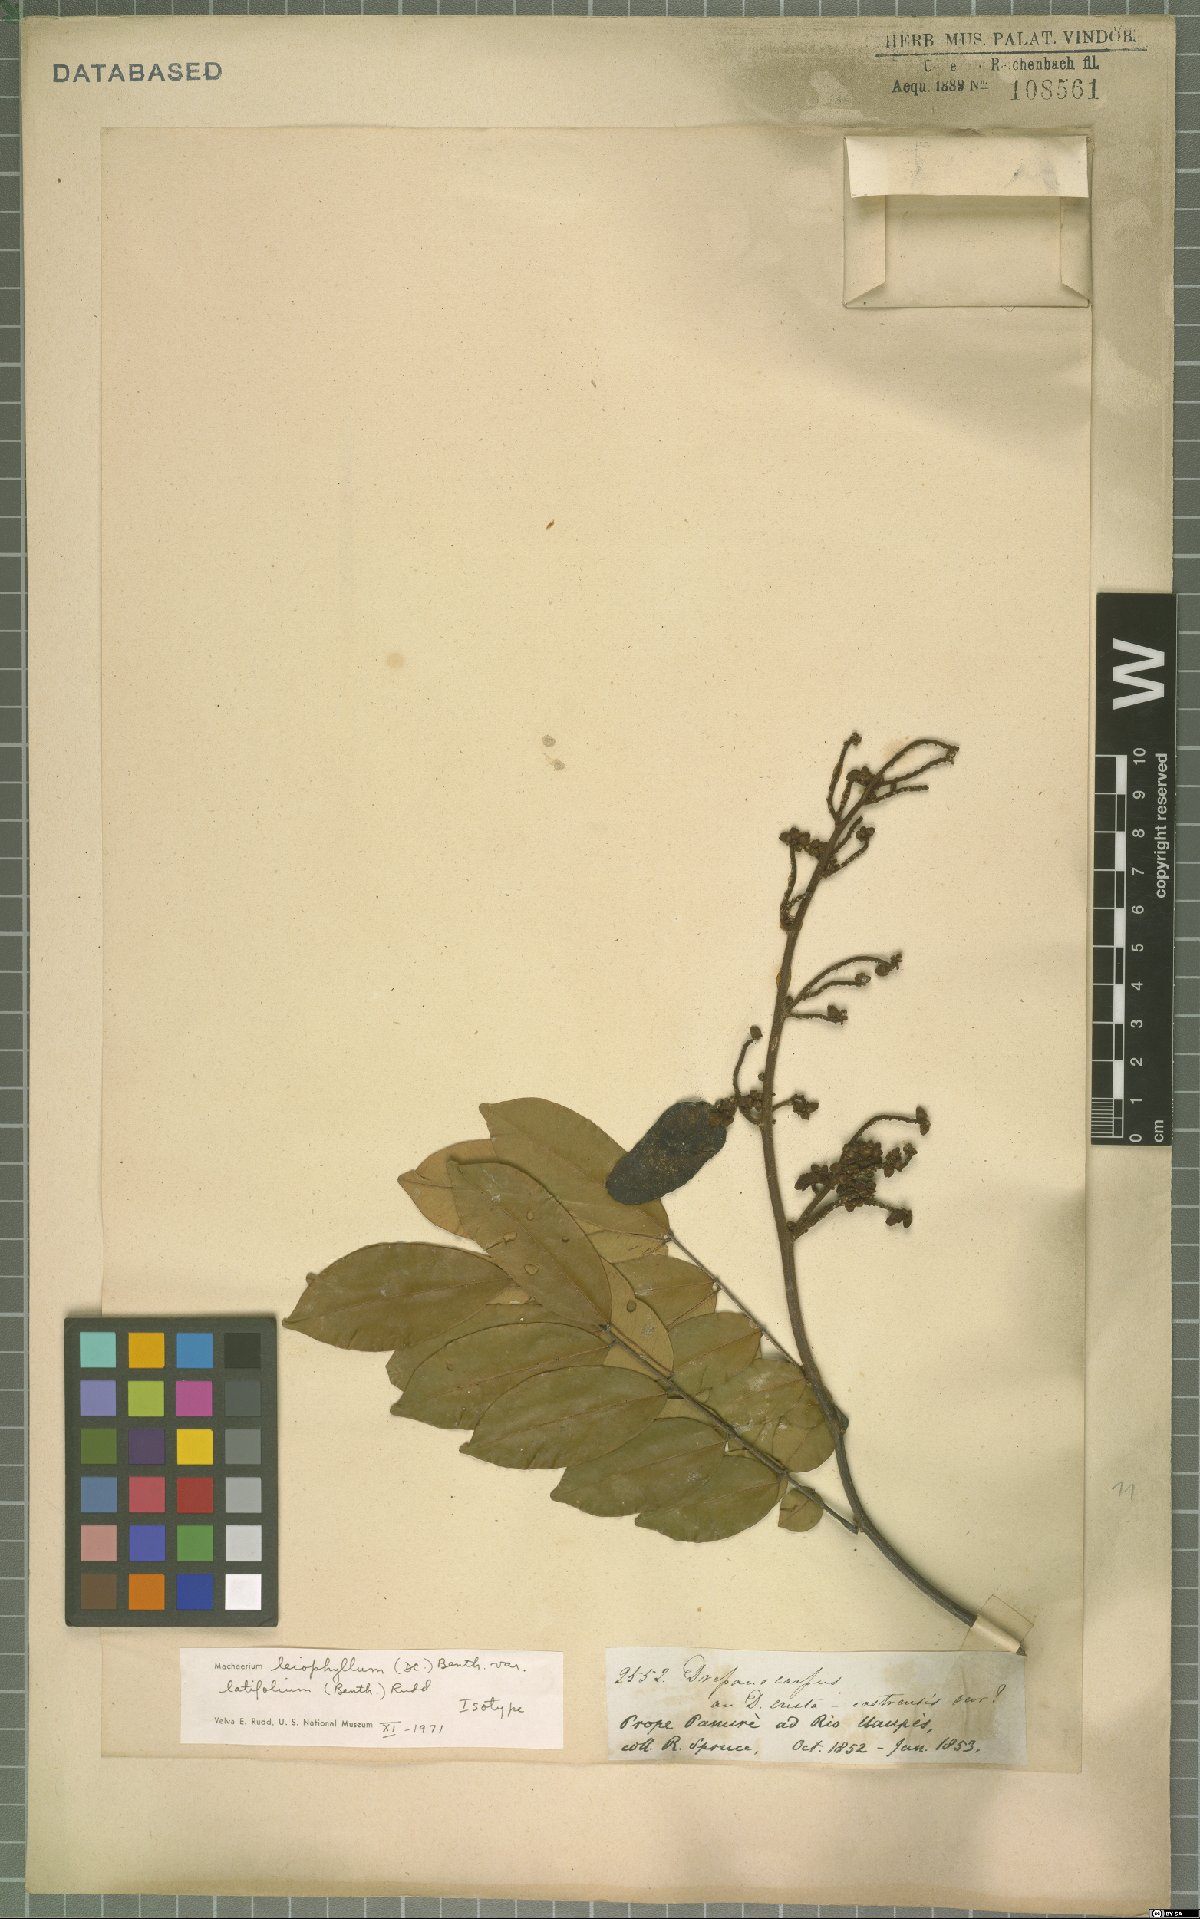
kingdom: Plantae
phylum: Tracheophyta
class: Magnoliopsida
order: Fabales
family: Fabaceae
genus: Machaerium
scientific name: Machaerium leiophyllum
